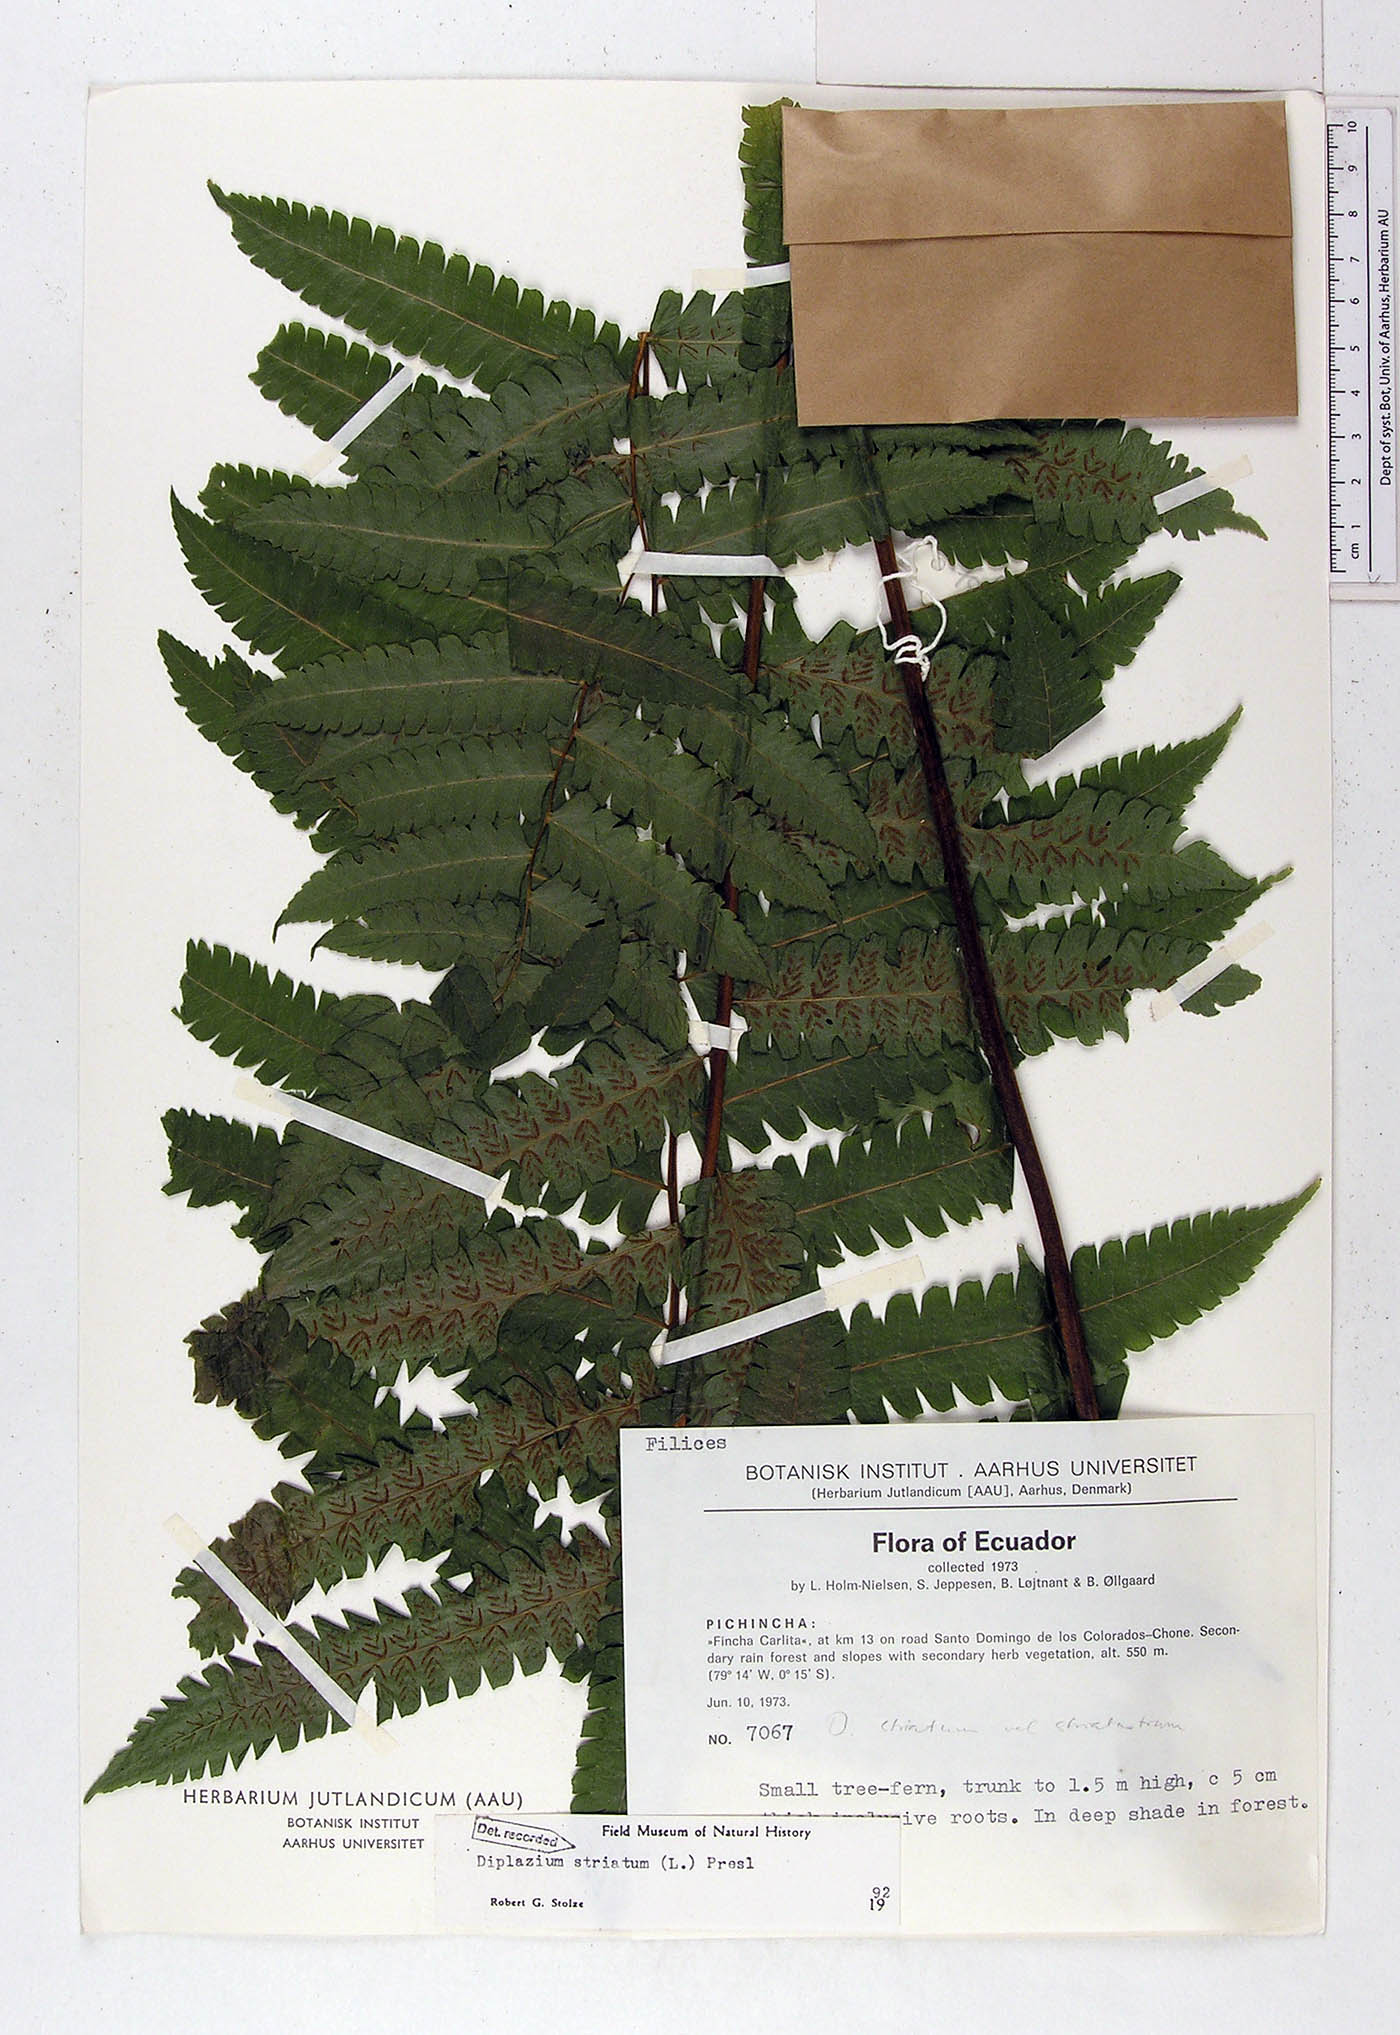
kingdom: Plantae
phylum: Tracheophyta
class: Polypodiopsida
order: Polypodiales
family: Athyriaceae
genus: Diplazium
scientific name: Diplazium striatum
